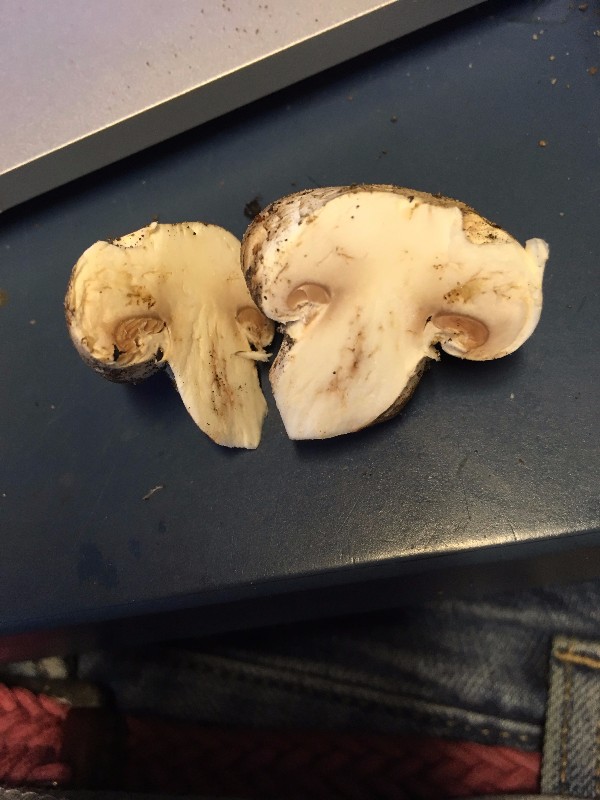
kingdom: Fungi
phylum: Basidiomycota
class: Agaricomycetes
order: Agaricales
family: Agaricaceae
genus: Agaricus
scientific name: Agaricus campestris
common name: mark-champignon
